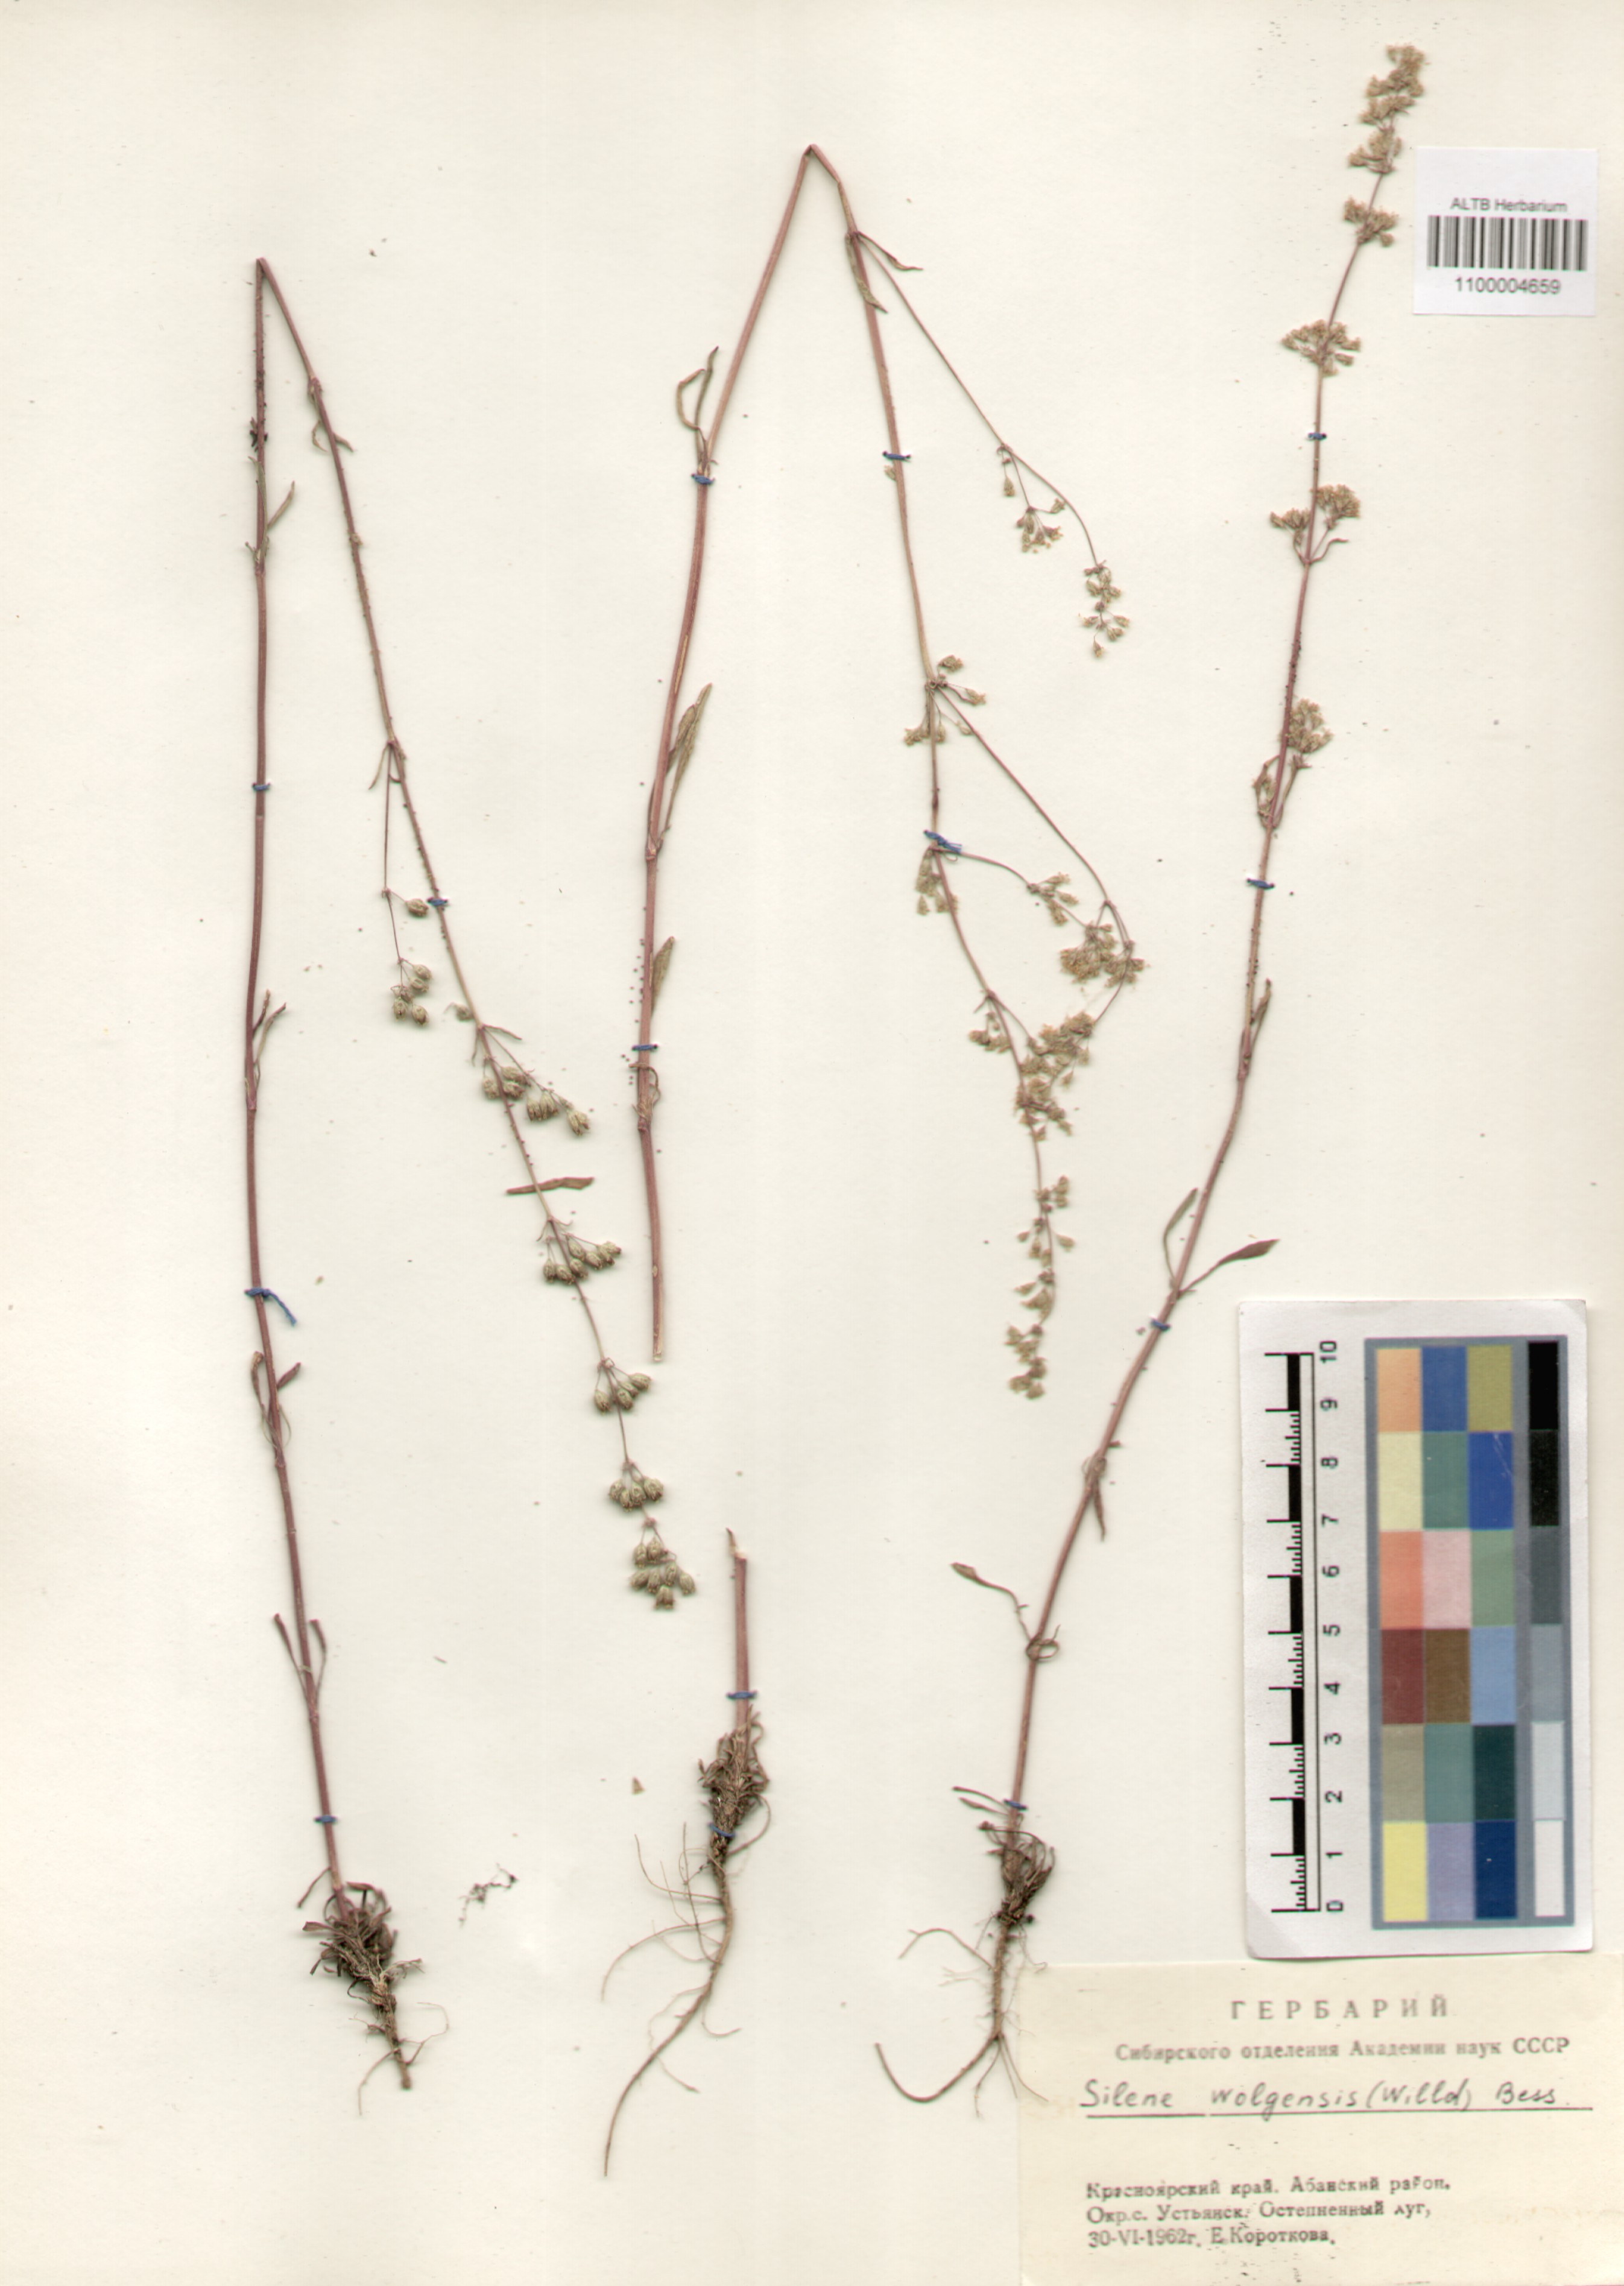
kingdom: Plantae
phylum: Tracheophyta
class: Magnoliopsida
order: Caryophyllales
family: Caryophyllaceae
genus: Silene
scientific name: Silene wolgensis
